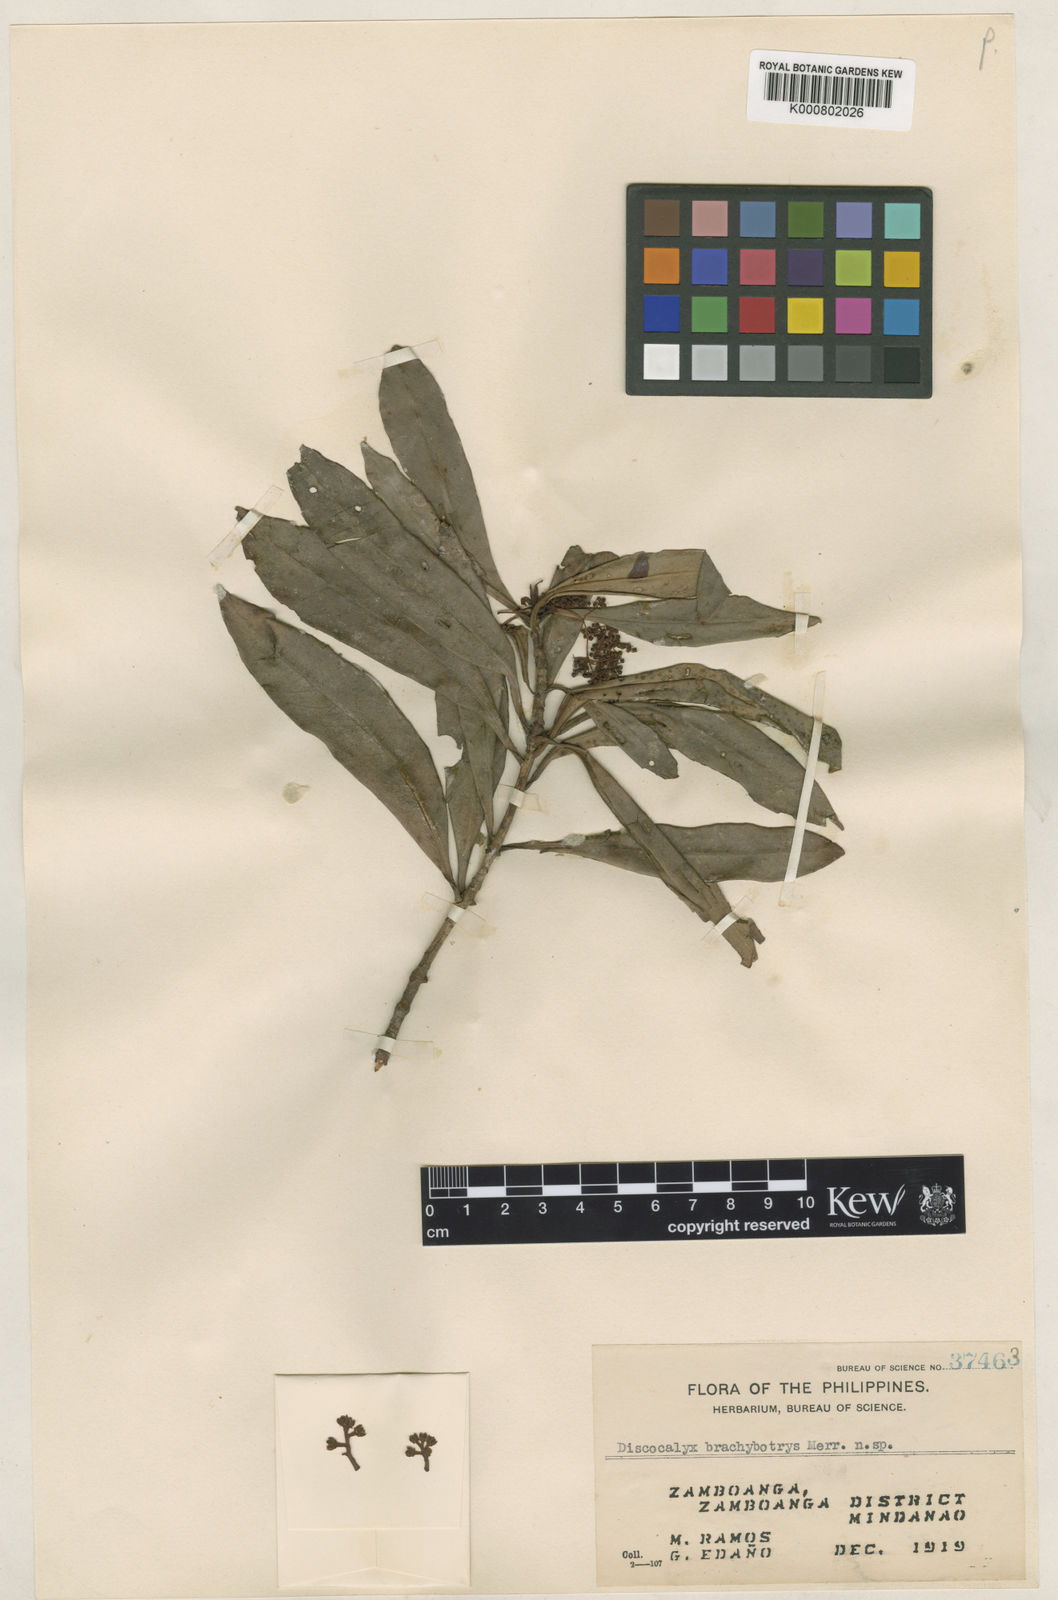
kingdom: Plantae
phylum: Tracheophyta
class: Magnoliopsida
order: Ericales
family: Primulaceae
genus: Discocalyx
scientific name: Discocalyx brachybotrya
